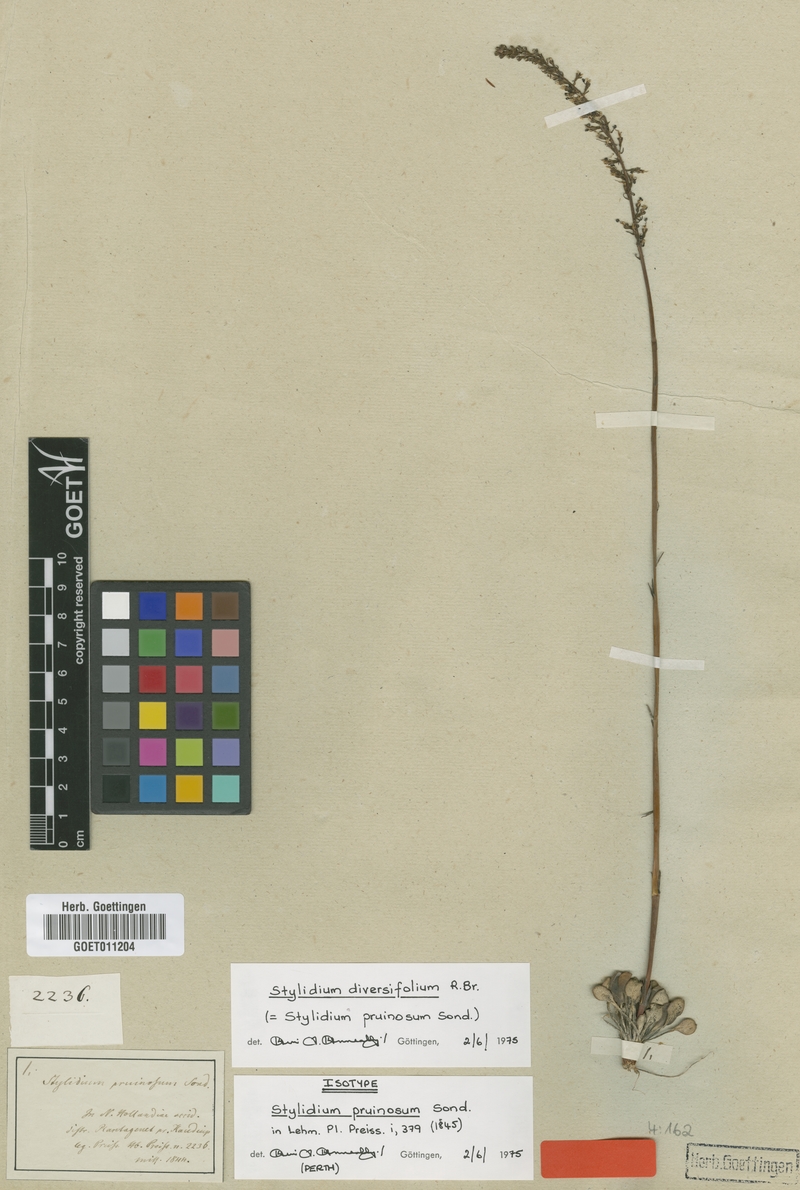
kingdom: Plantae
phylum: Tracheophyta
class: Magnoliopsida
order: Asterales
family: Stylidiaceae
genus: Stylidium
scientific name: Stylidium diversifolium
